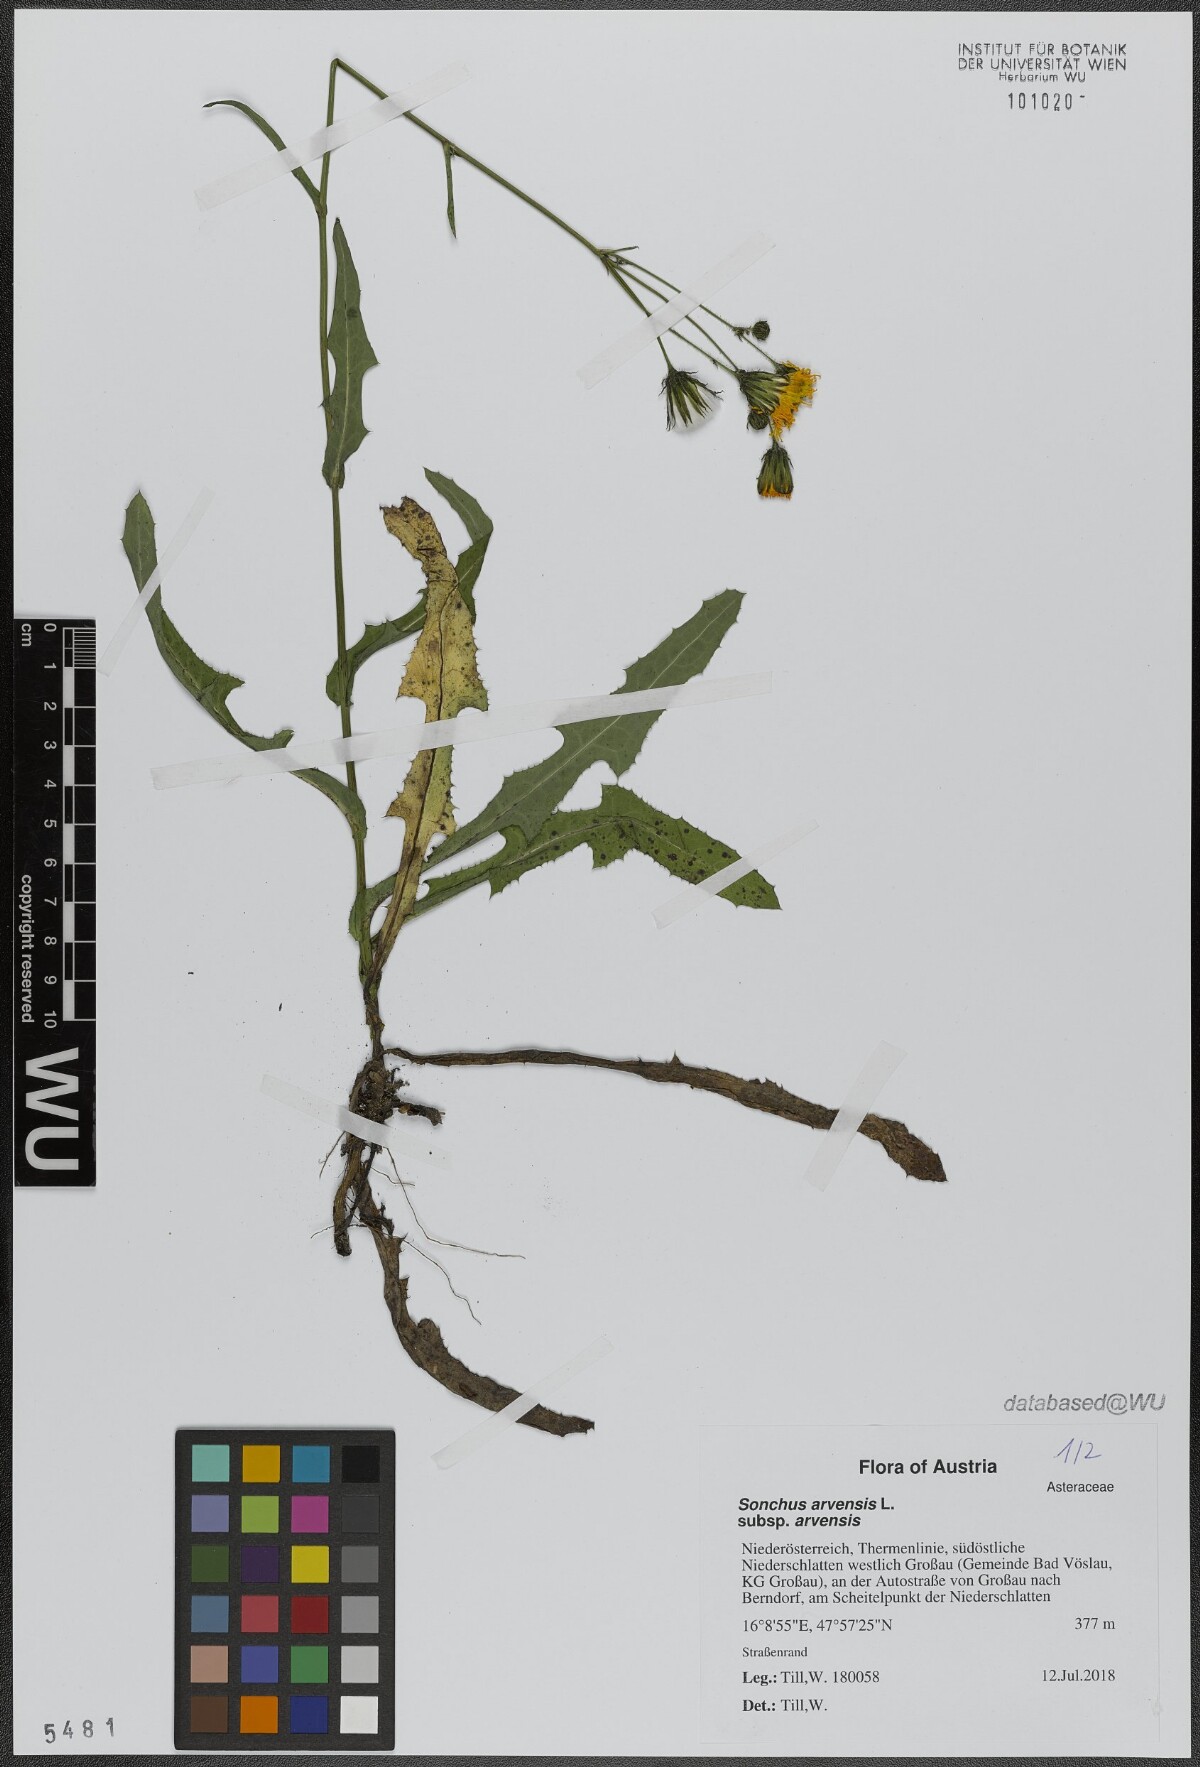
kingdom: Plantae
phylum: Tracheophyta
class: Magnoliopsida
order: Asterales
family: Asteraceae
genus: Sonchus
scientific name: Sonchus arvensis
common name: Perennial sow-thistle
